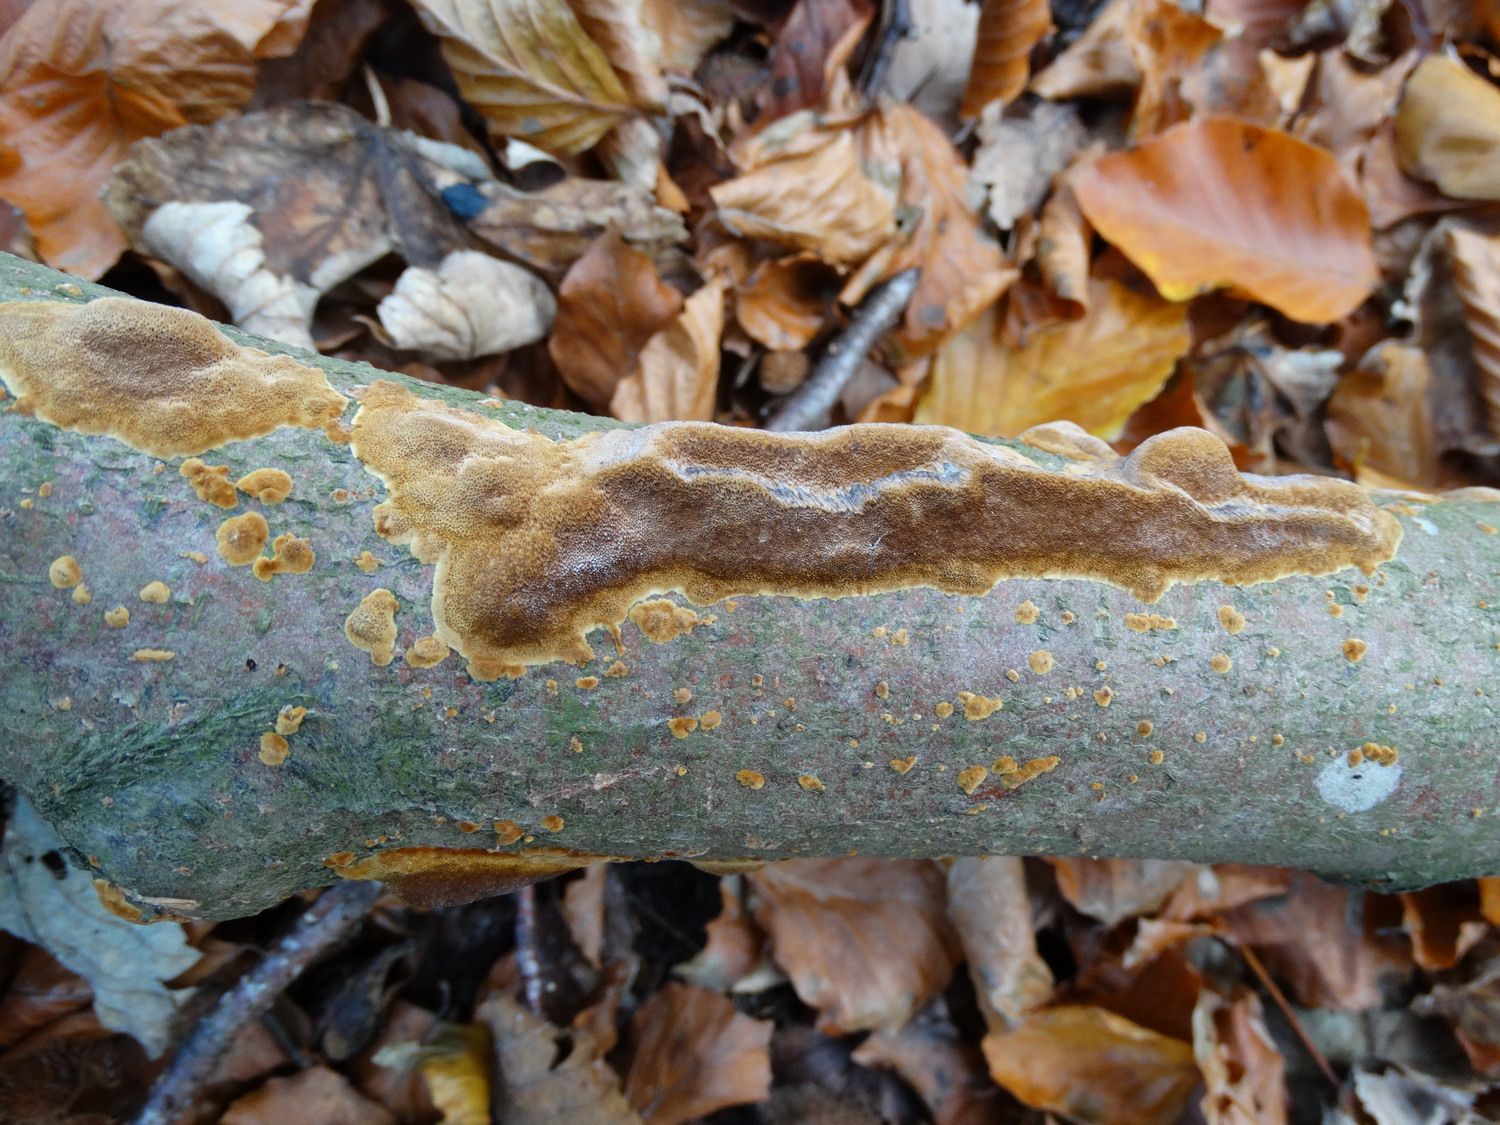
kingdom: Fungi
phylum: Basidiomycota
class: Agaricomycetes
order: Hymenochaetales
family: Hymenochaetaceae
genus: Fuscoporia
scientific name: Fuscoporia
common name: Ildporesvamp
